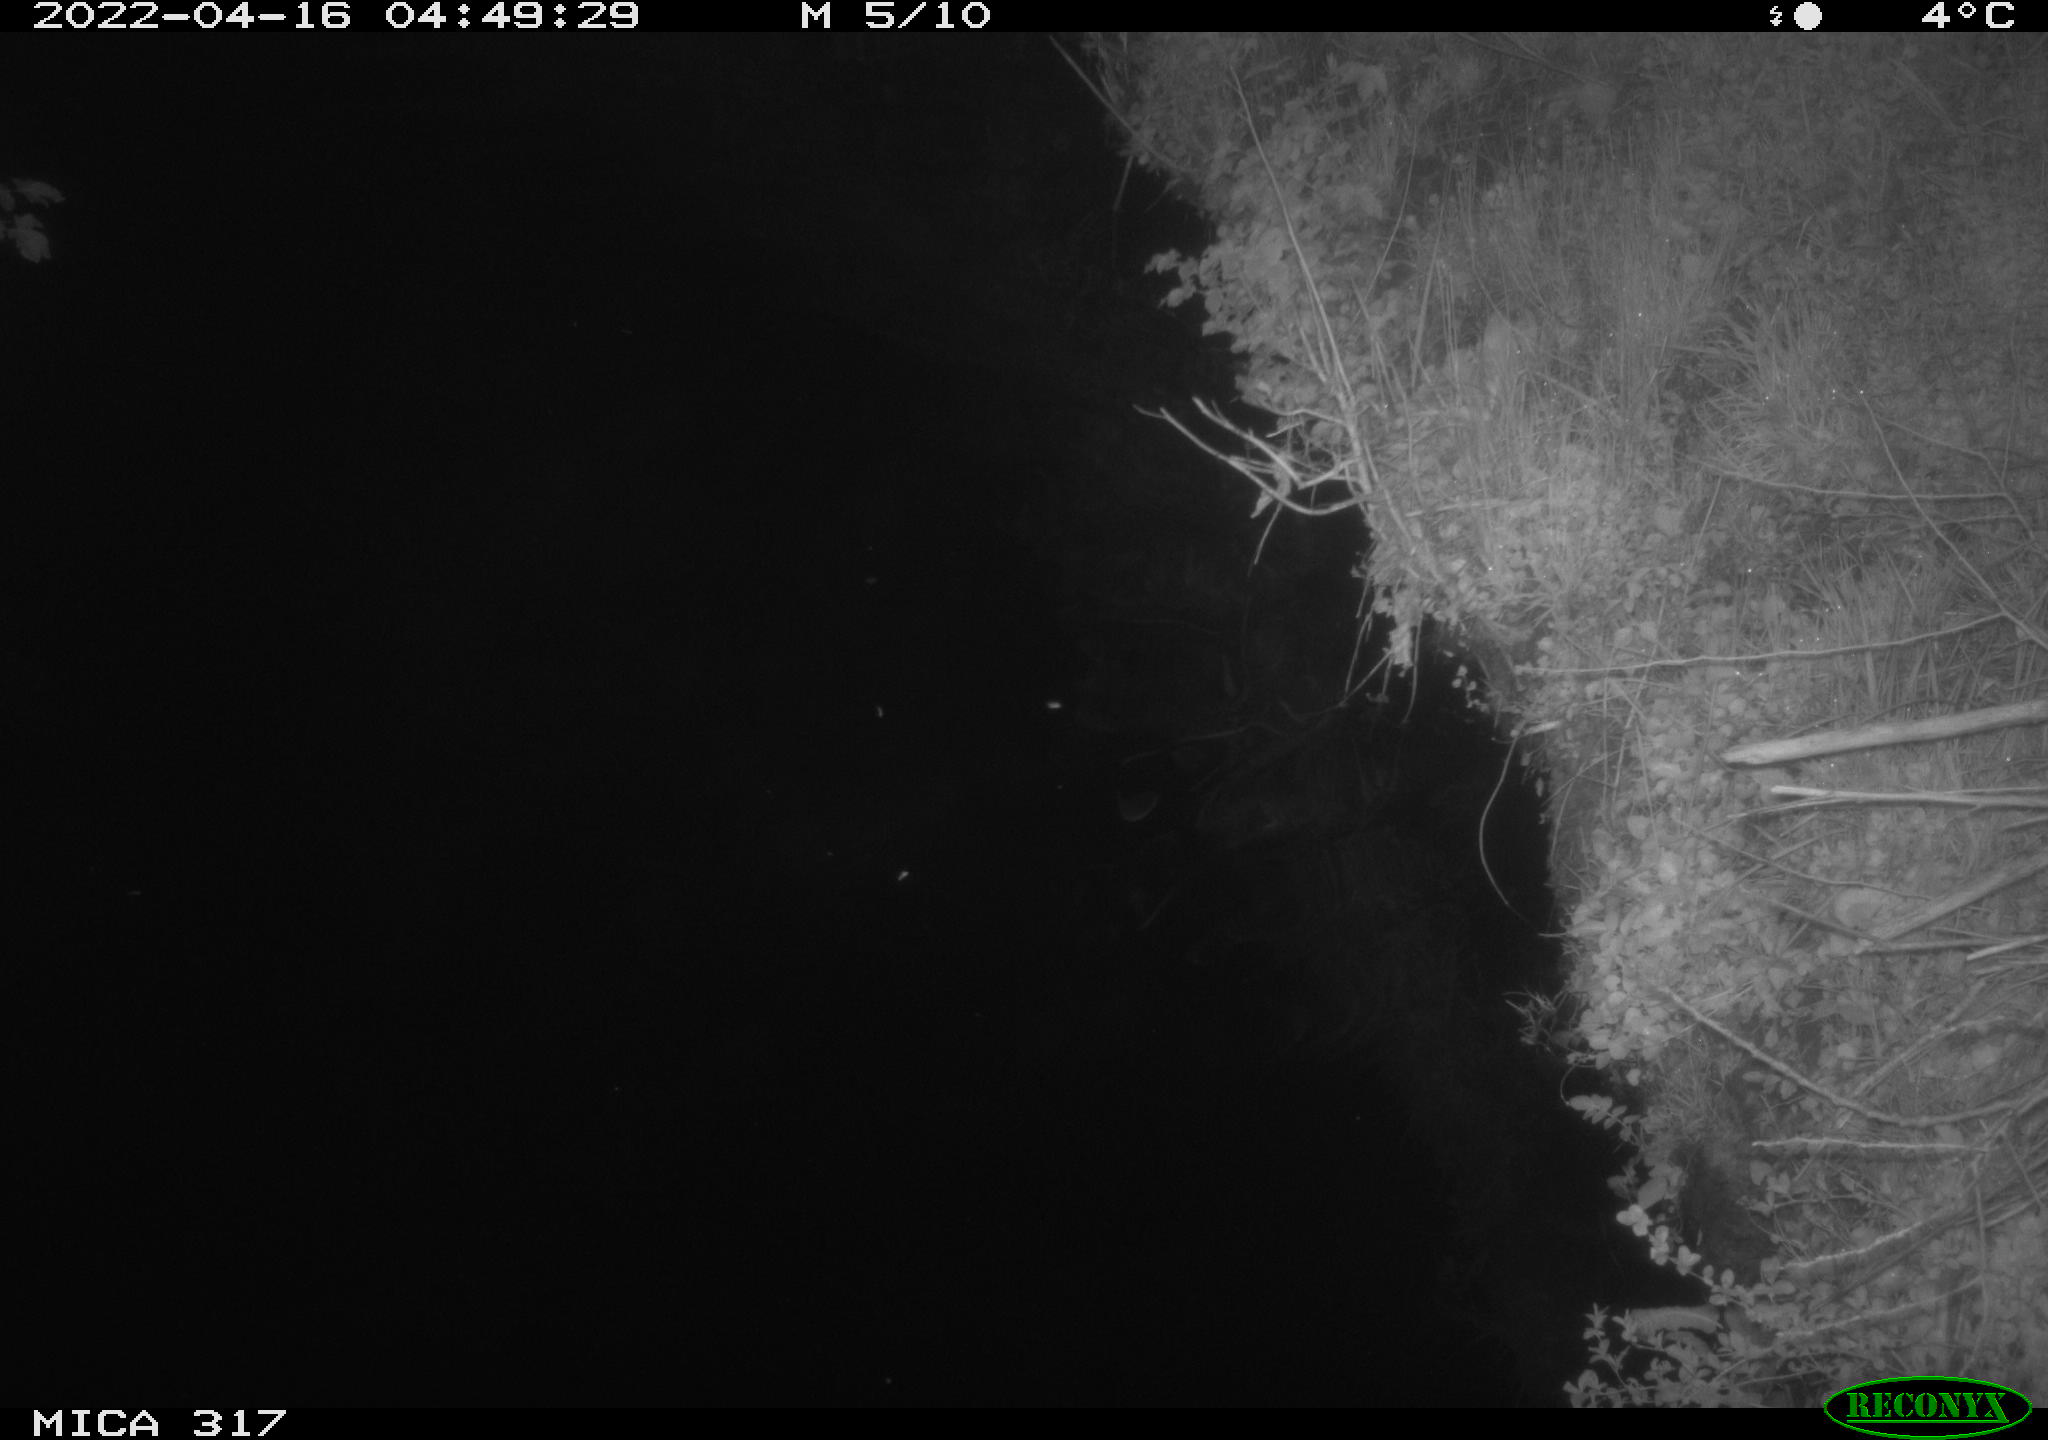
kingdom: Animalia
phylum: Chordata
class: Aves
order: Anseriformes
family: Anatidae
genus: Anas
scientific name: Anas platyrhynchos
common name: Mallard
